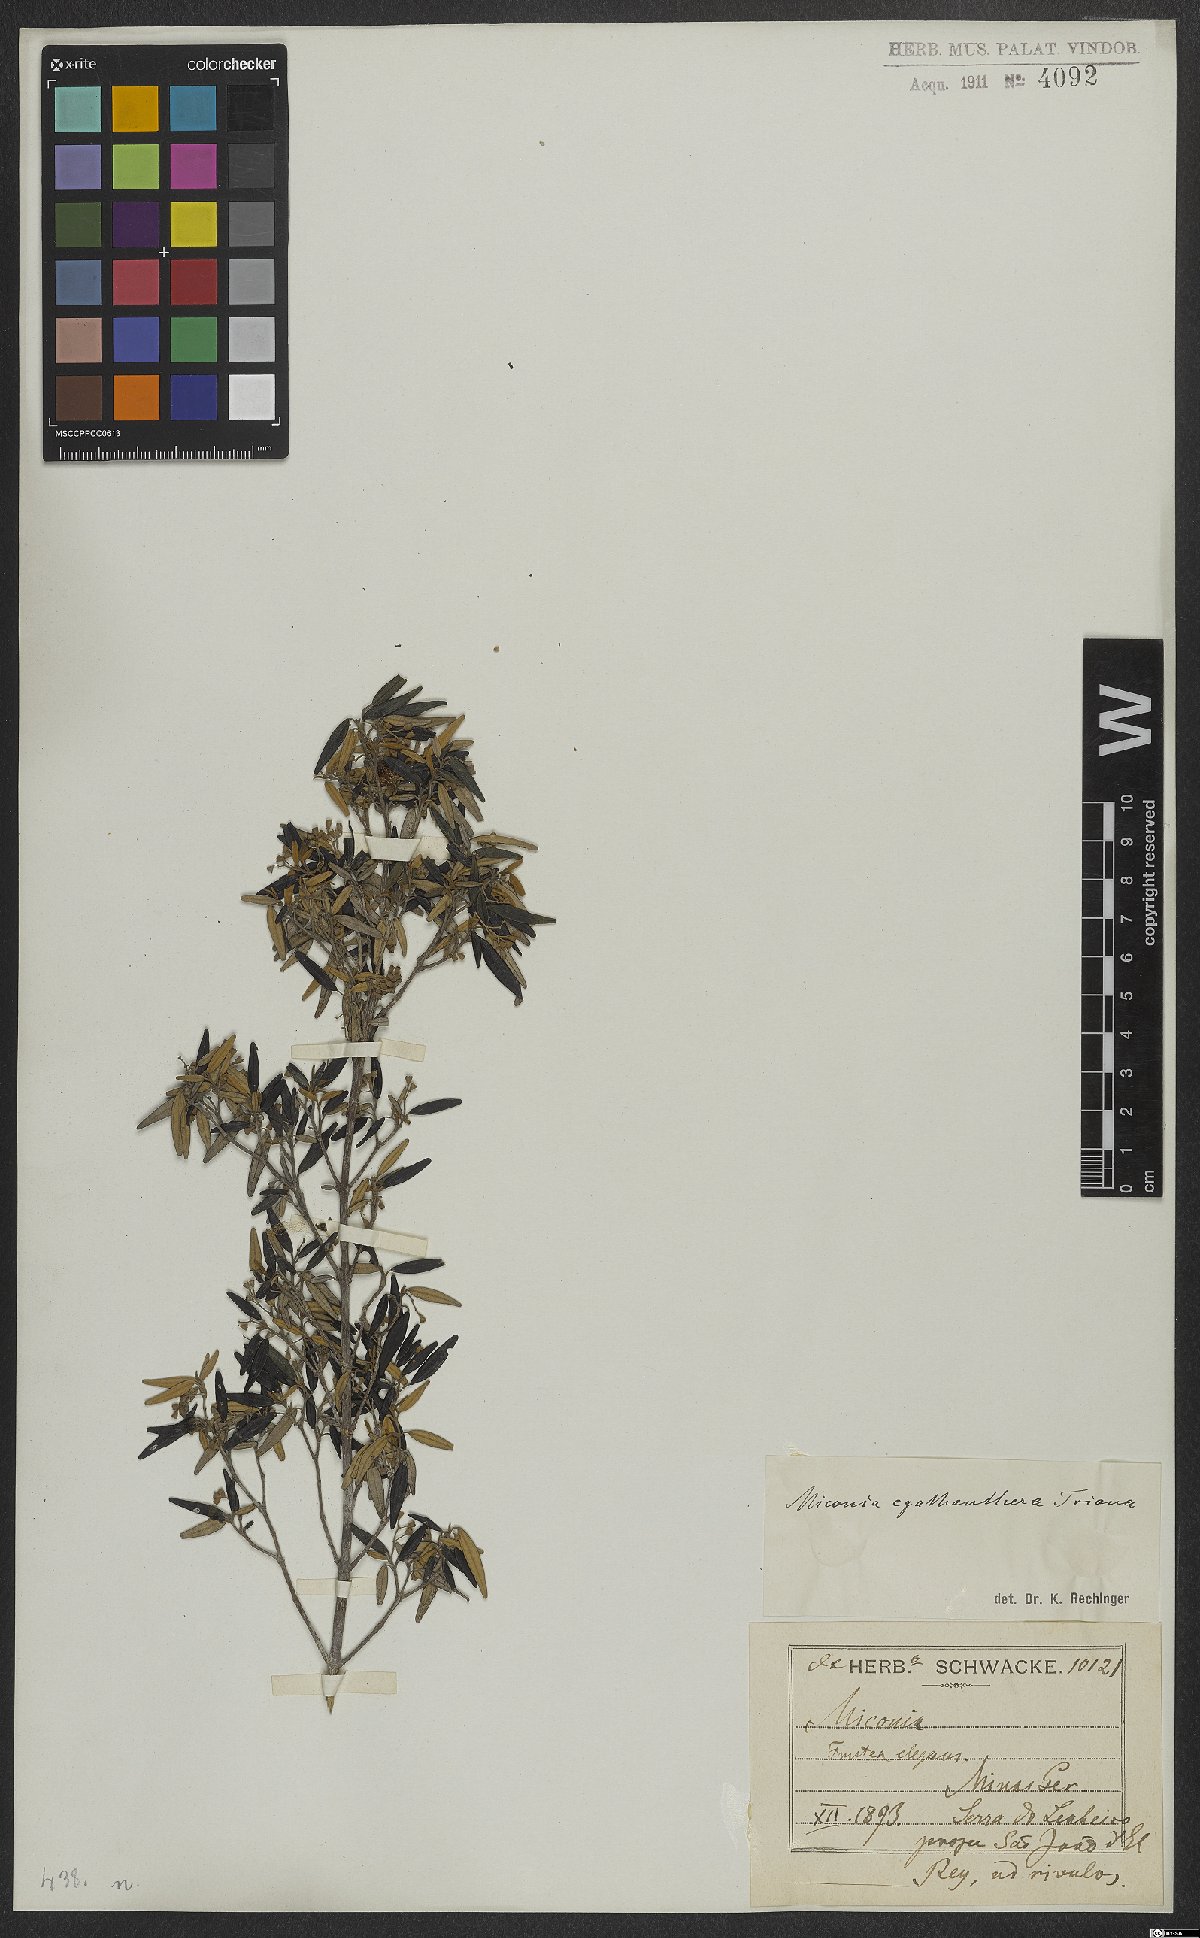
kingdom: Plantae
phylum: Tracheophyta
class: Magnoliopsida
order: Myrtales
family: Melastomataceae
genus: Miconia
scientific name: Miconia cyathanthera
